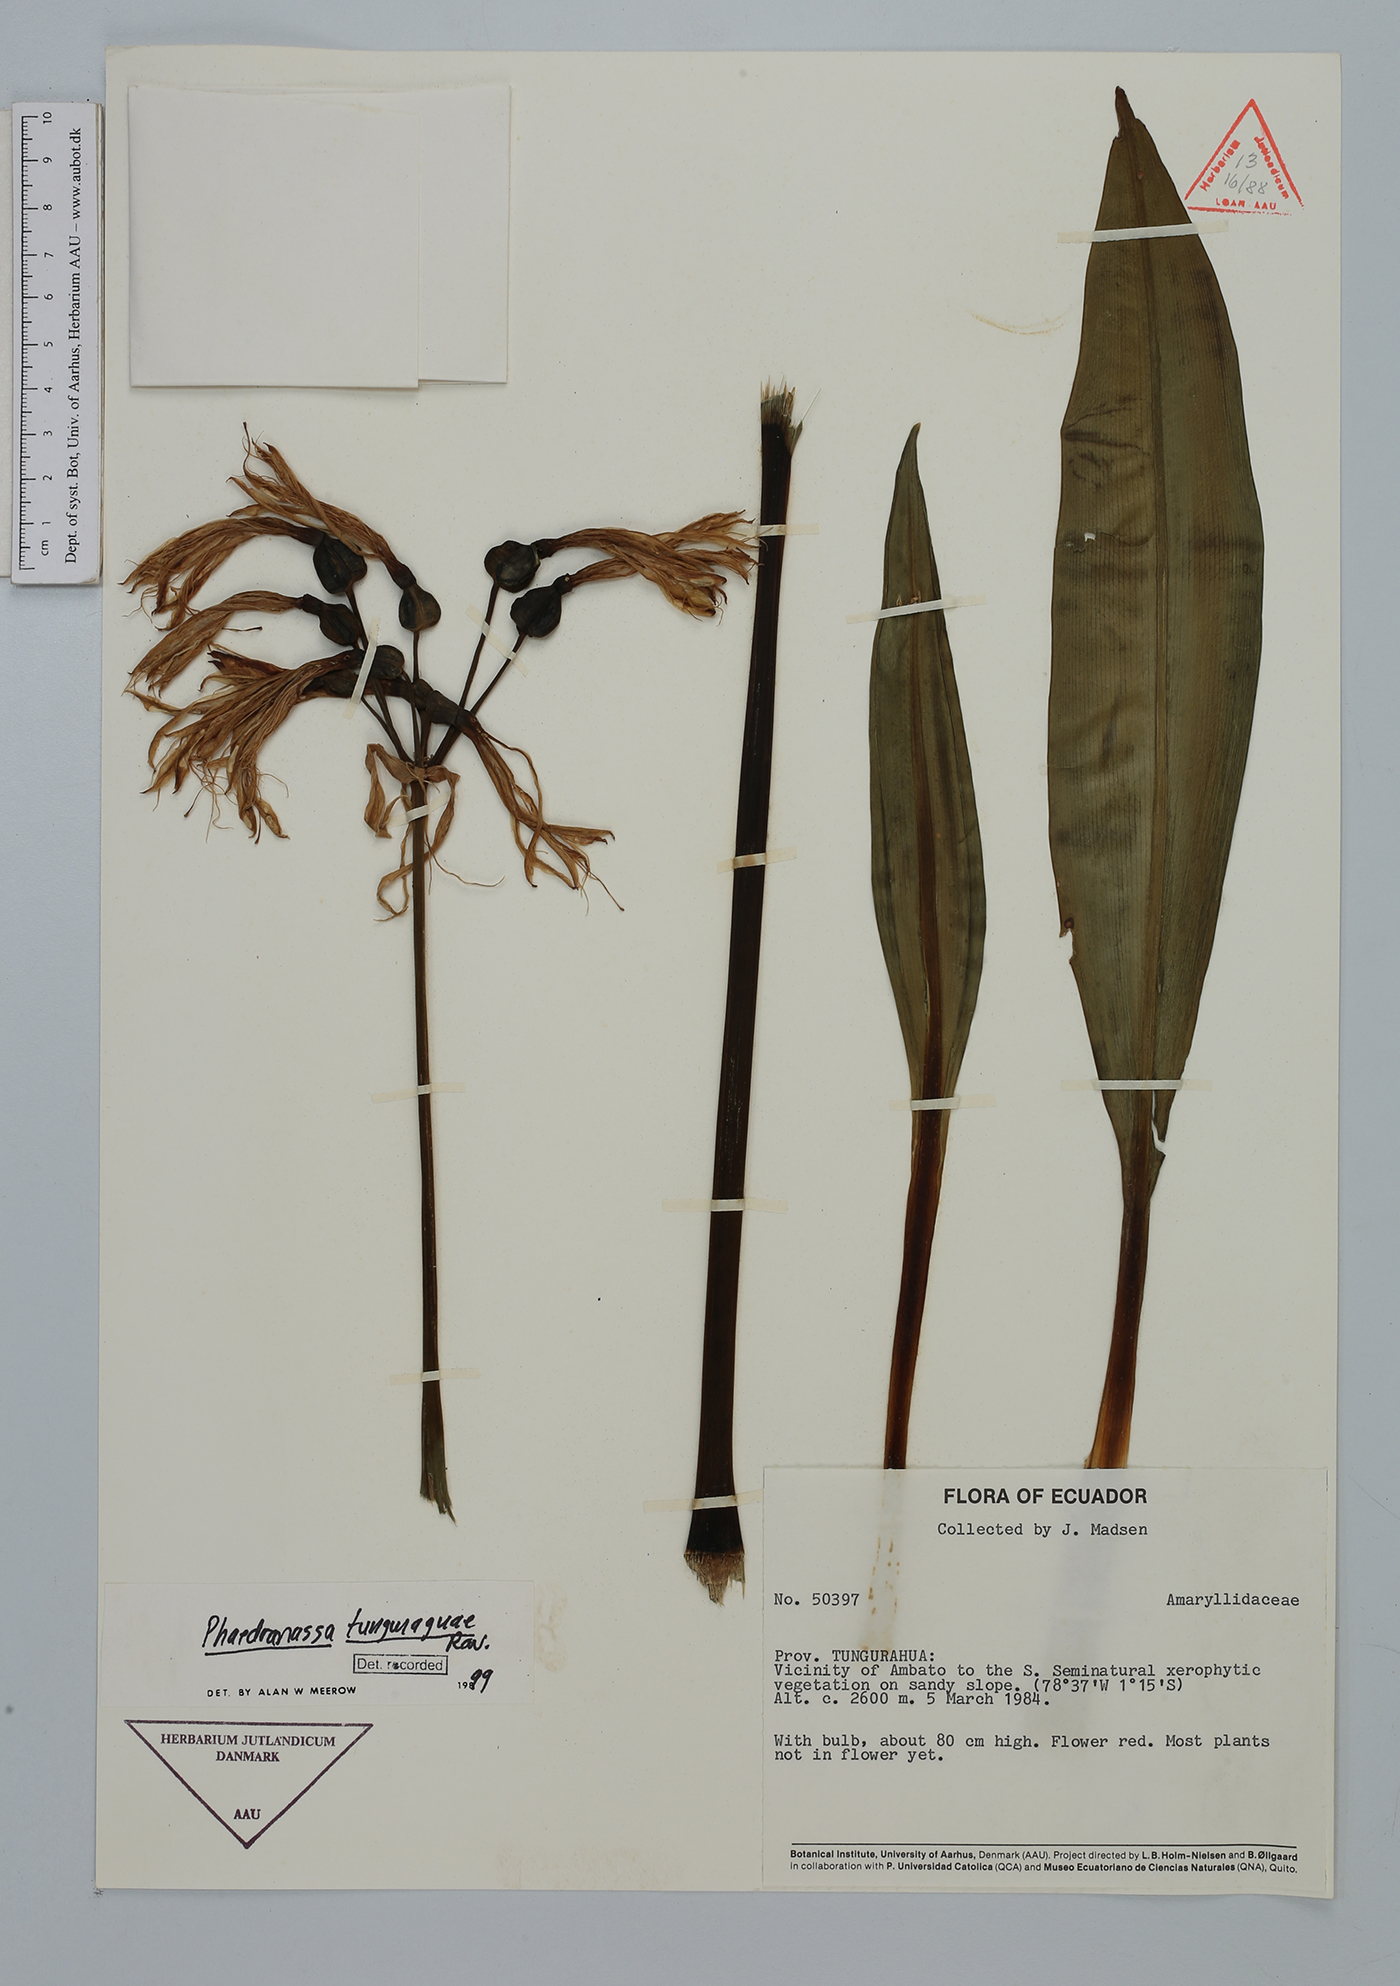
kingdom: Plantae
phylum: Tracheophyta
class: Liliopsida
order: Asparagales
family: Amaryllidaceae
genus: Phaedranassa
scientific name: Phaedranassa tunguraguae
